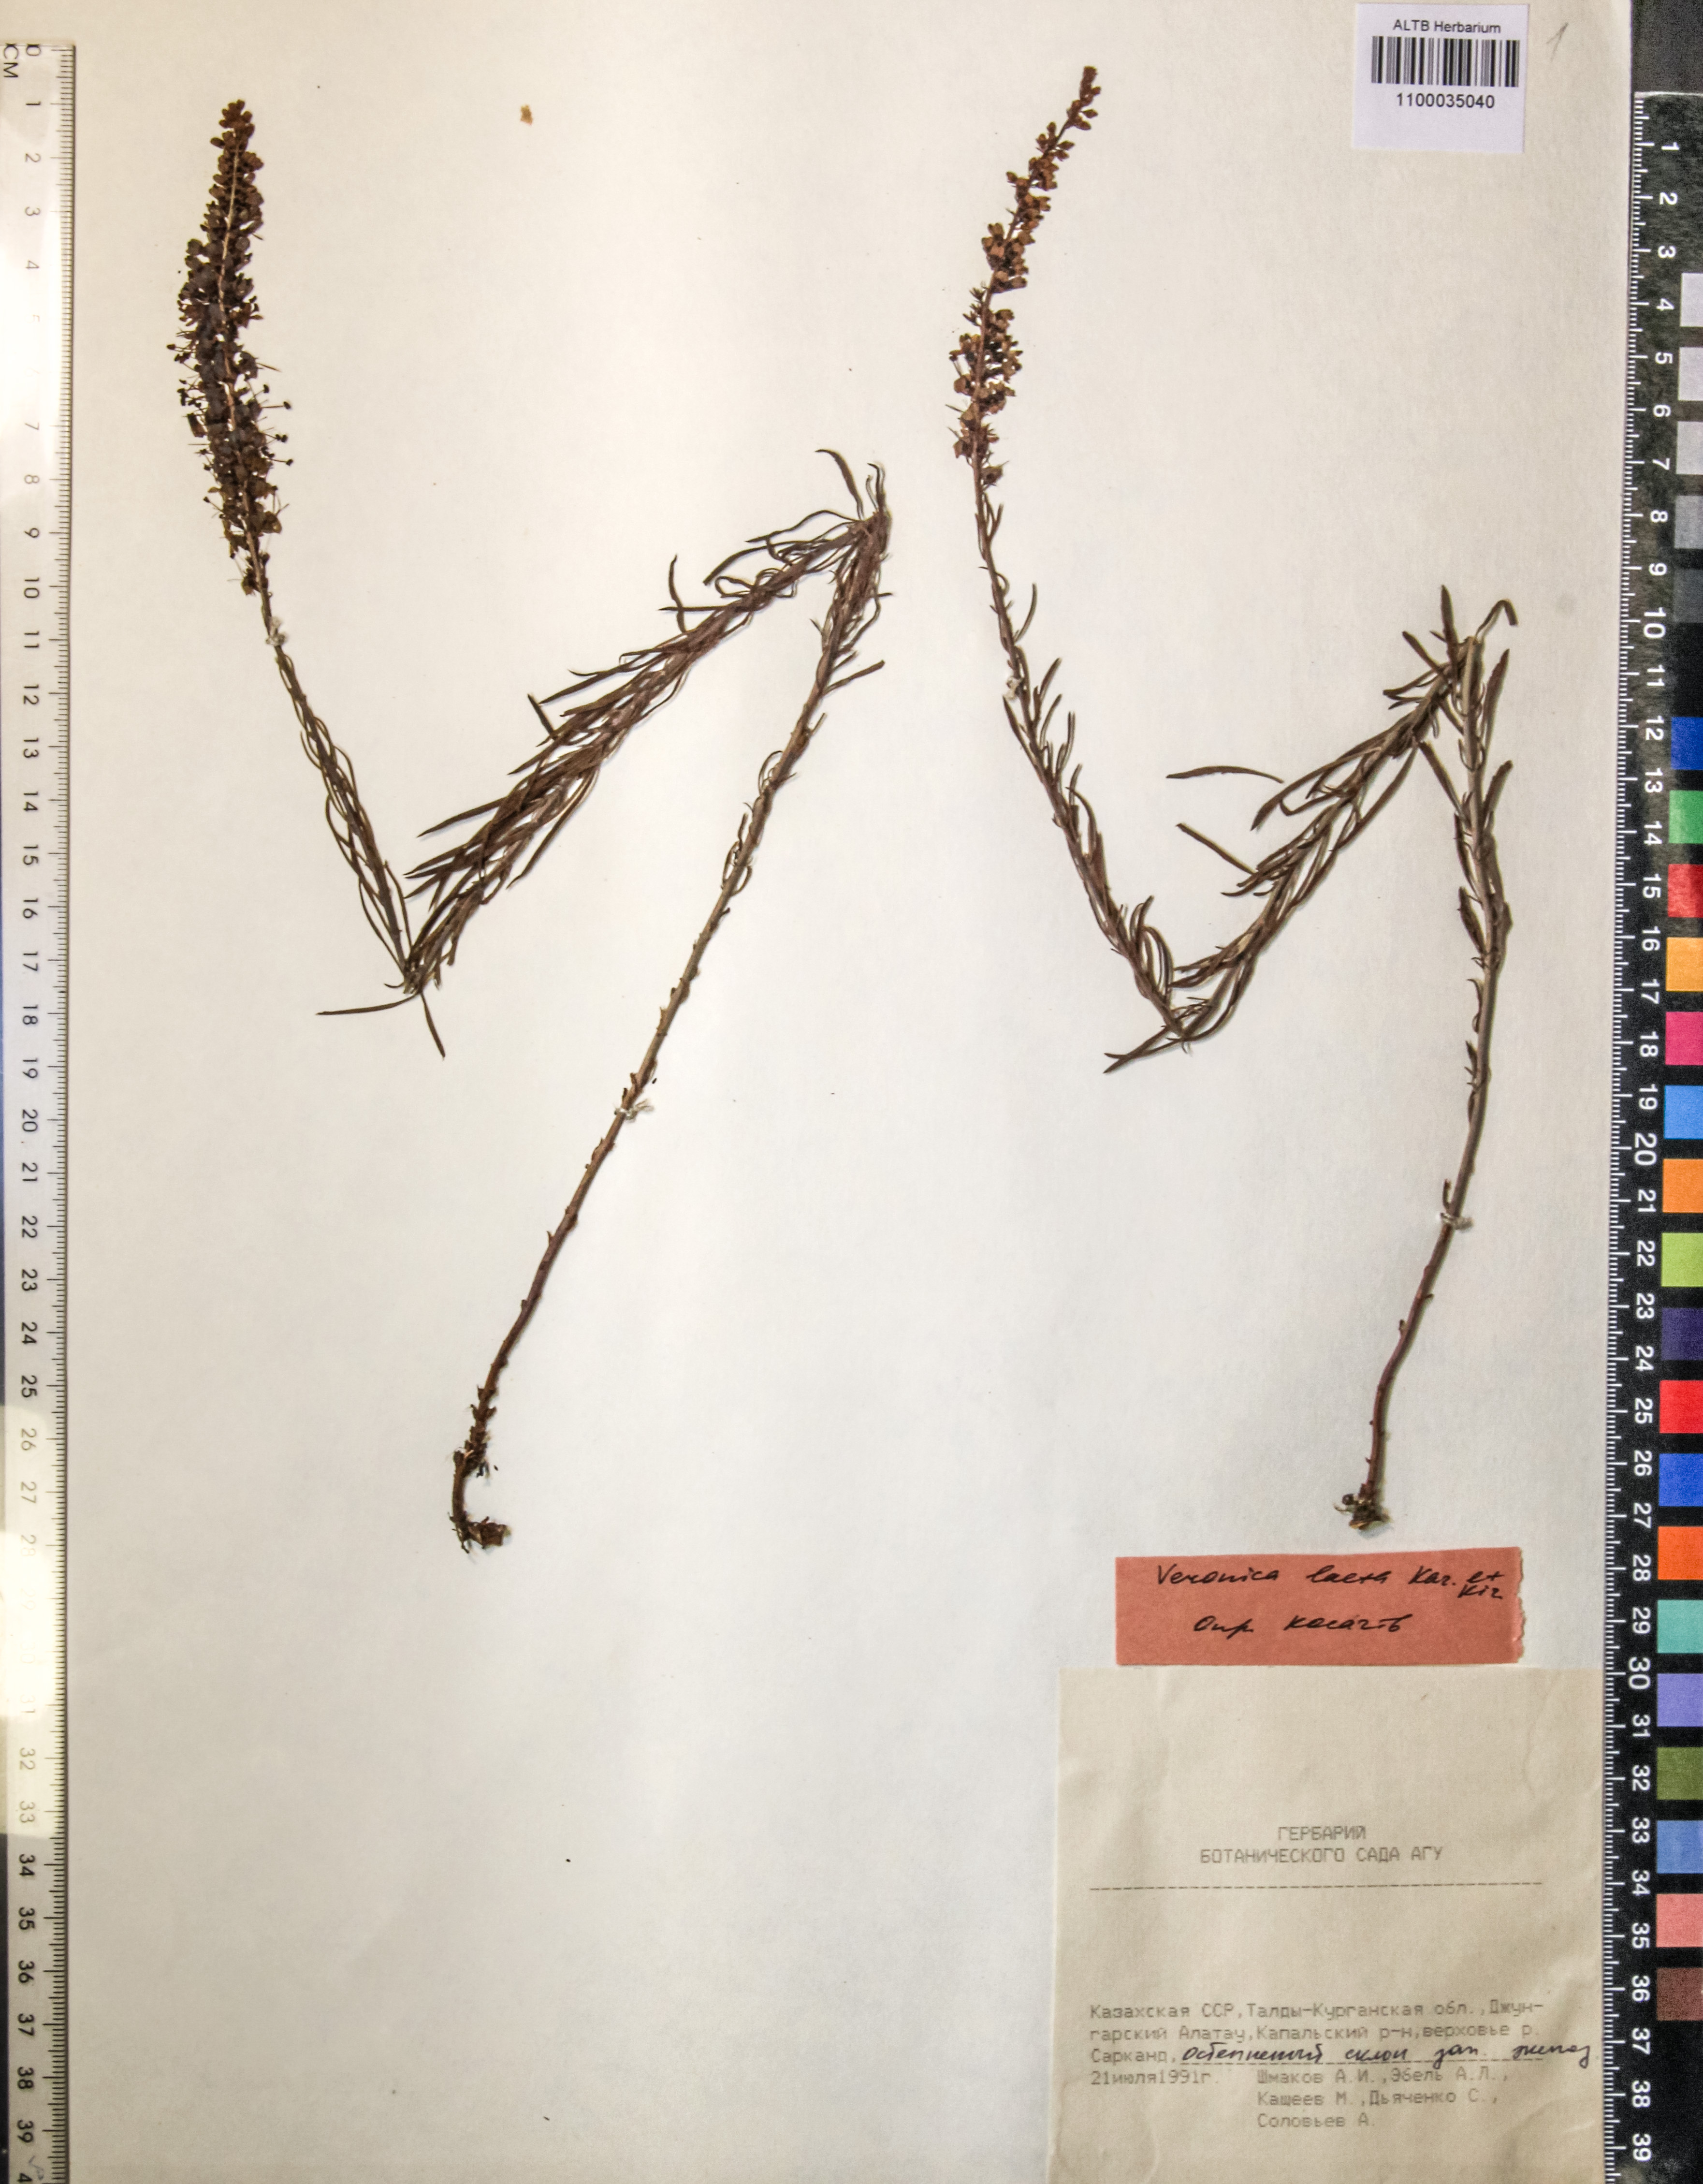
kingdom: Plantae
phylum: Tracheophyta
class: Magnoliopsida
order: Lamiales
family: Plantaginaceae
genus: Veronica
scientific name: Veronica laeta
